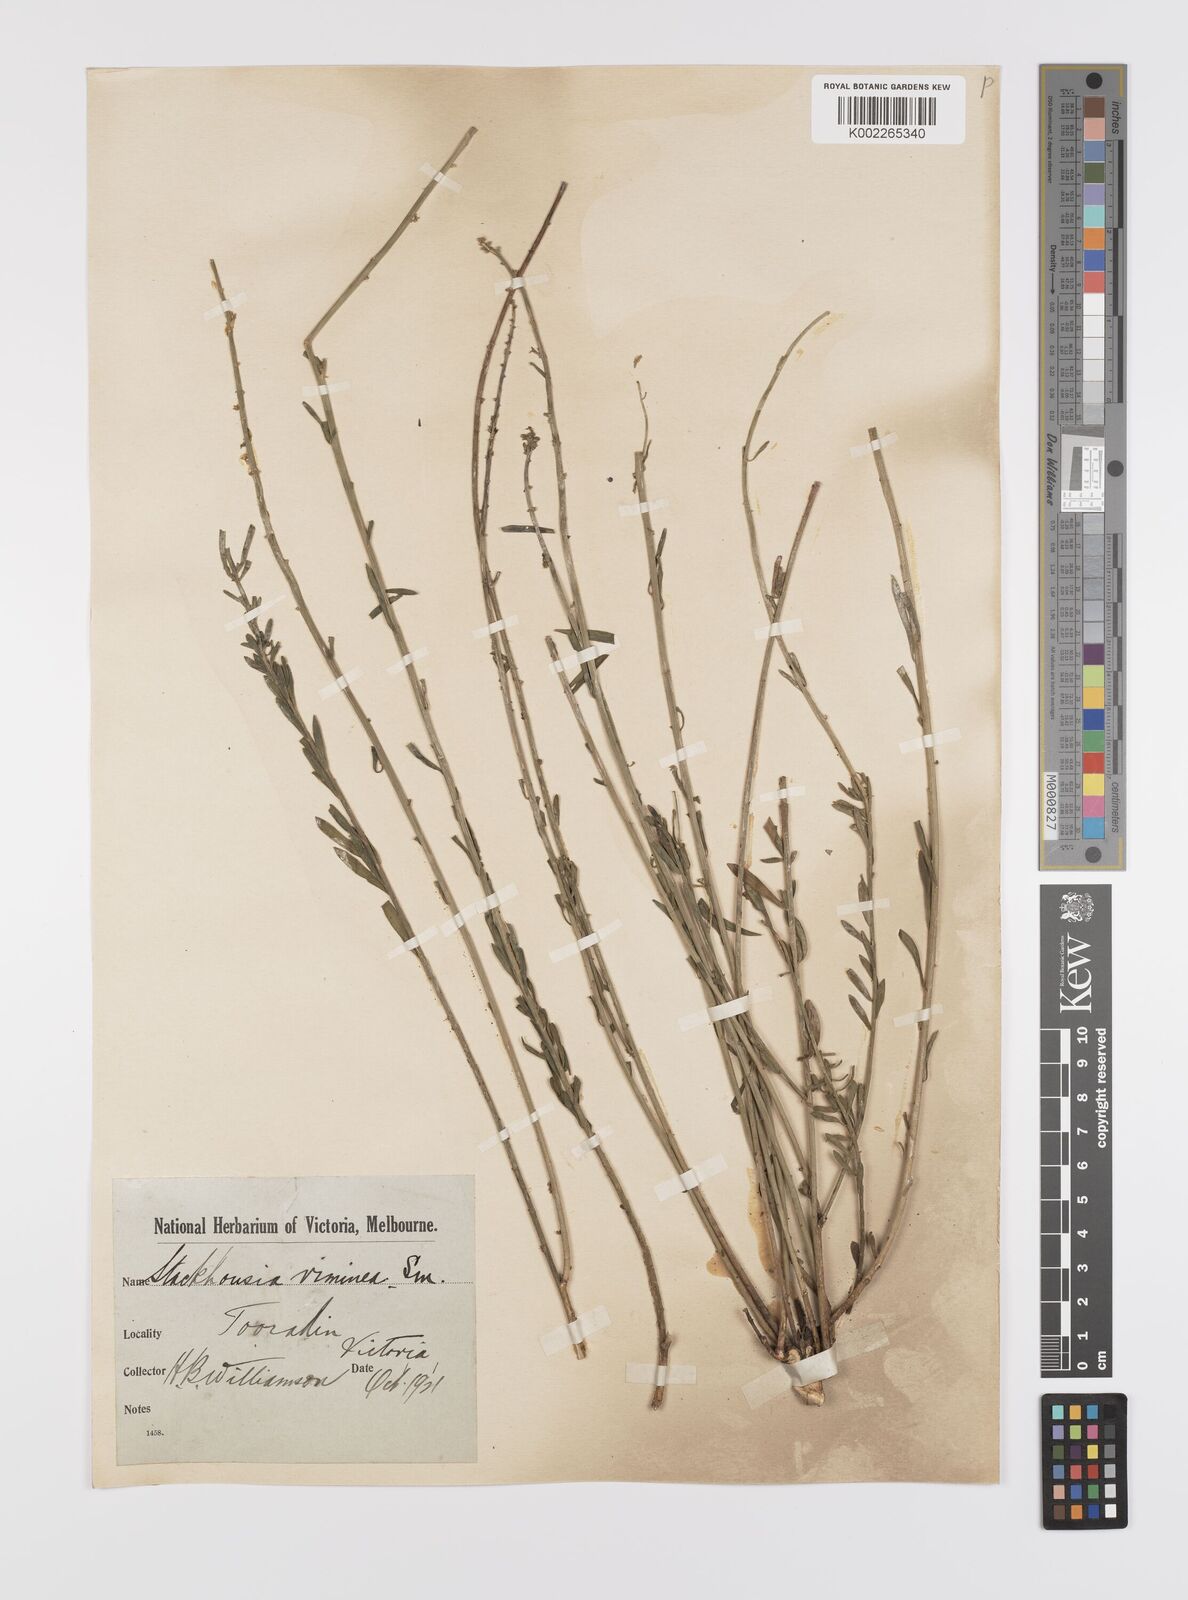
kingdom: Plantae
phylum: Tracheophyta
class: Magnoliopsida
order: Celastrales
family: Celastraceae
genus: Stackhousia
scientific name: Stackhousia viminea
